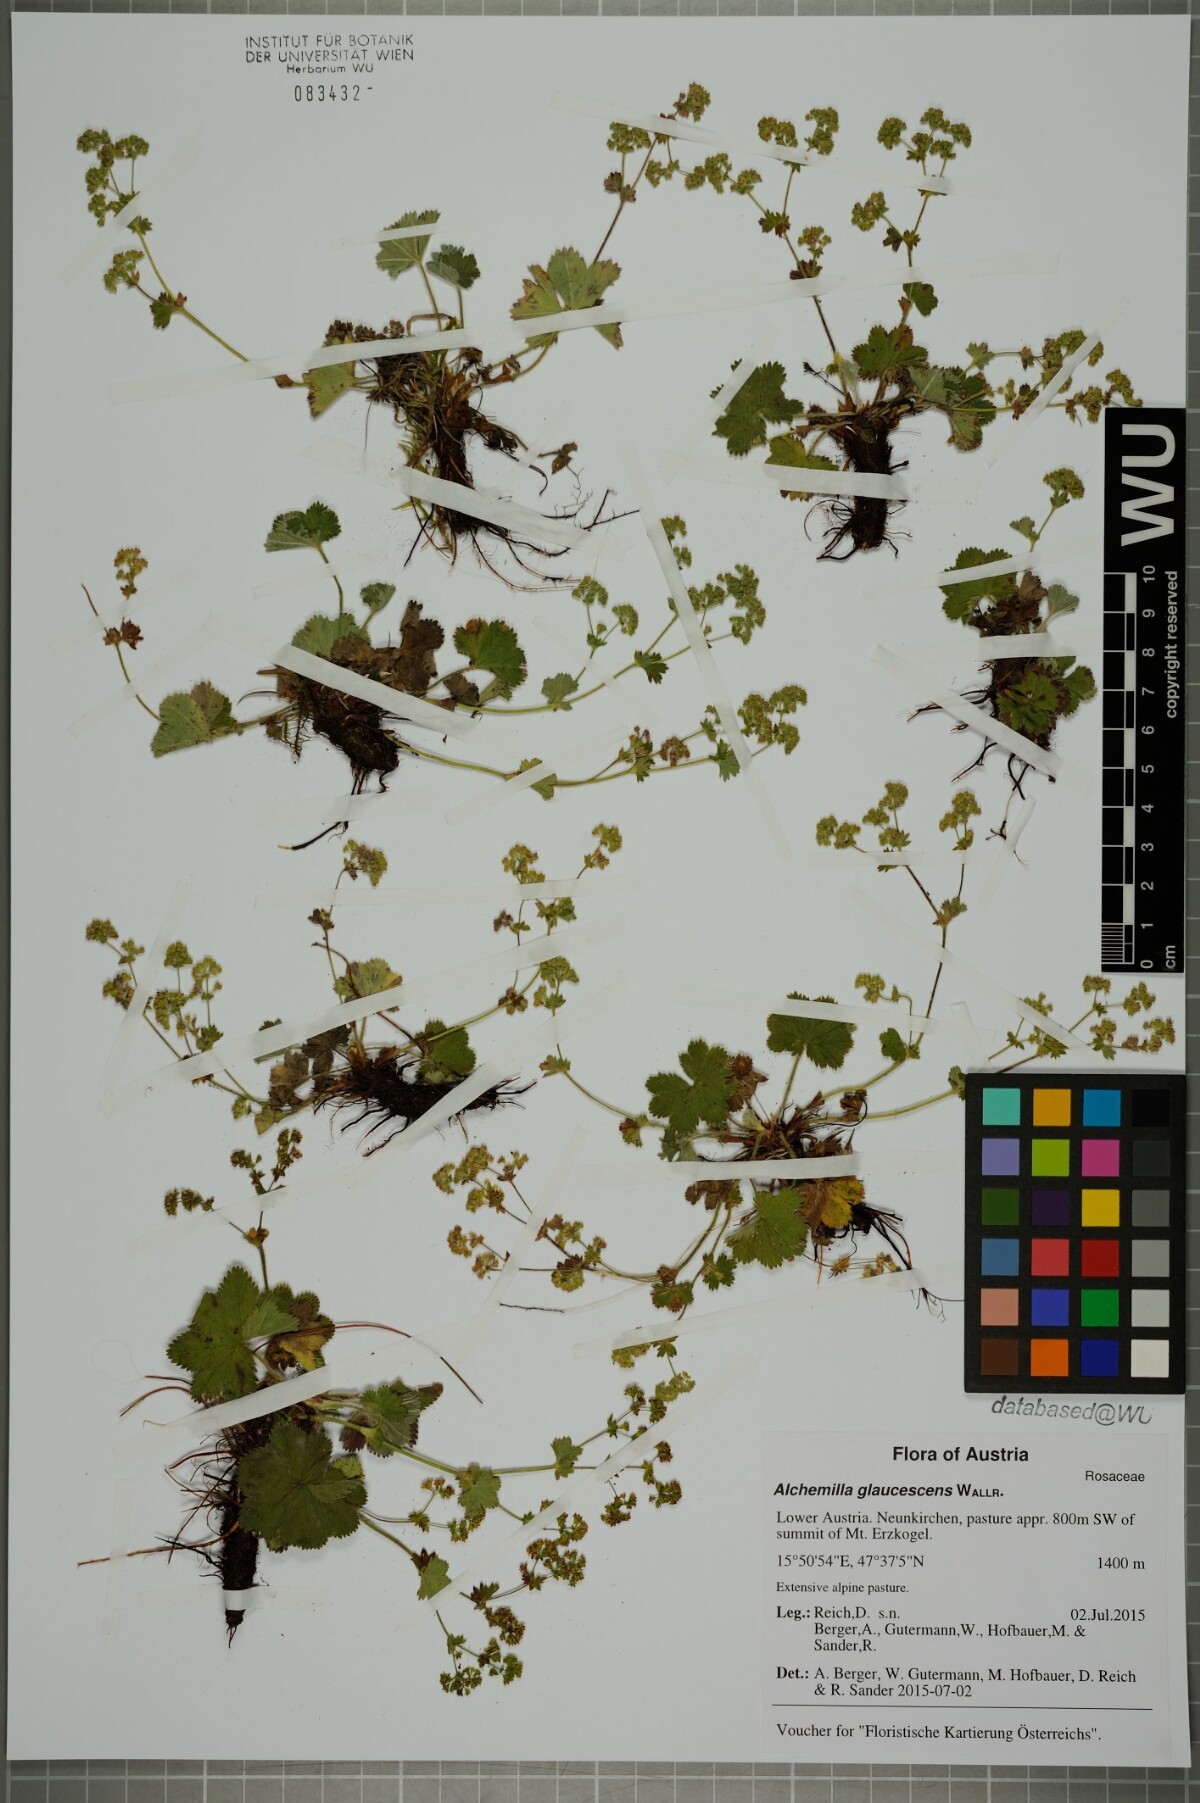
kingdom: Plantae
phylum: Tracheophyta
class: Magnoliopsida
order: Rosales
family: Rosaceae
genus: Alchemilla
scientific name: Alchemilla glaucescens
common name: Silky lady's mantle
